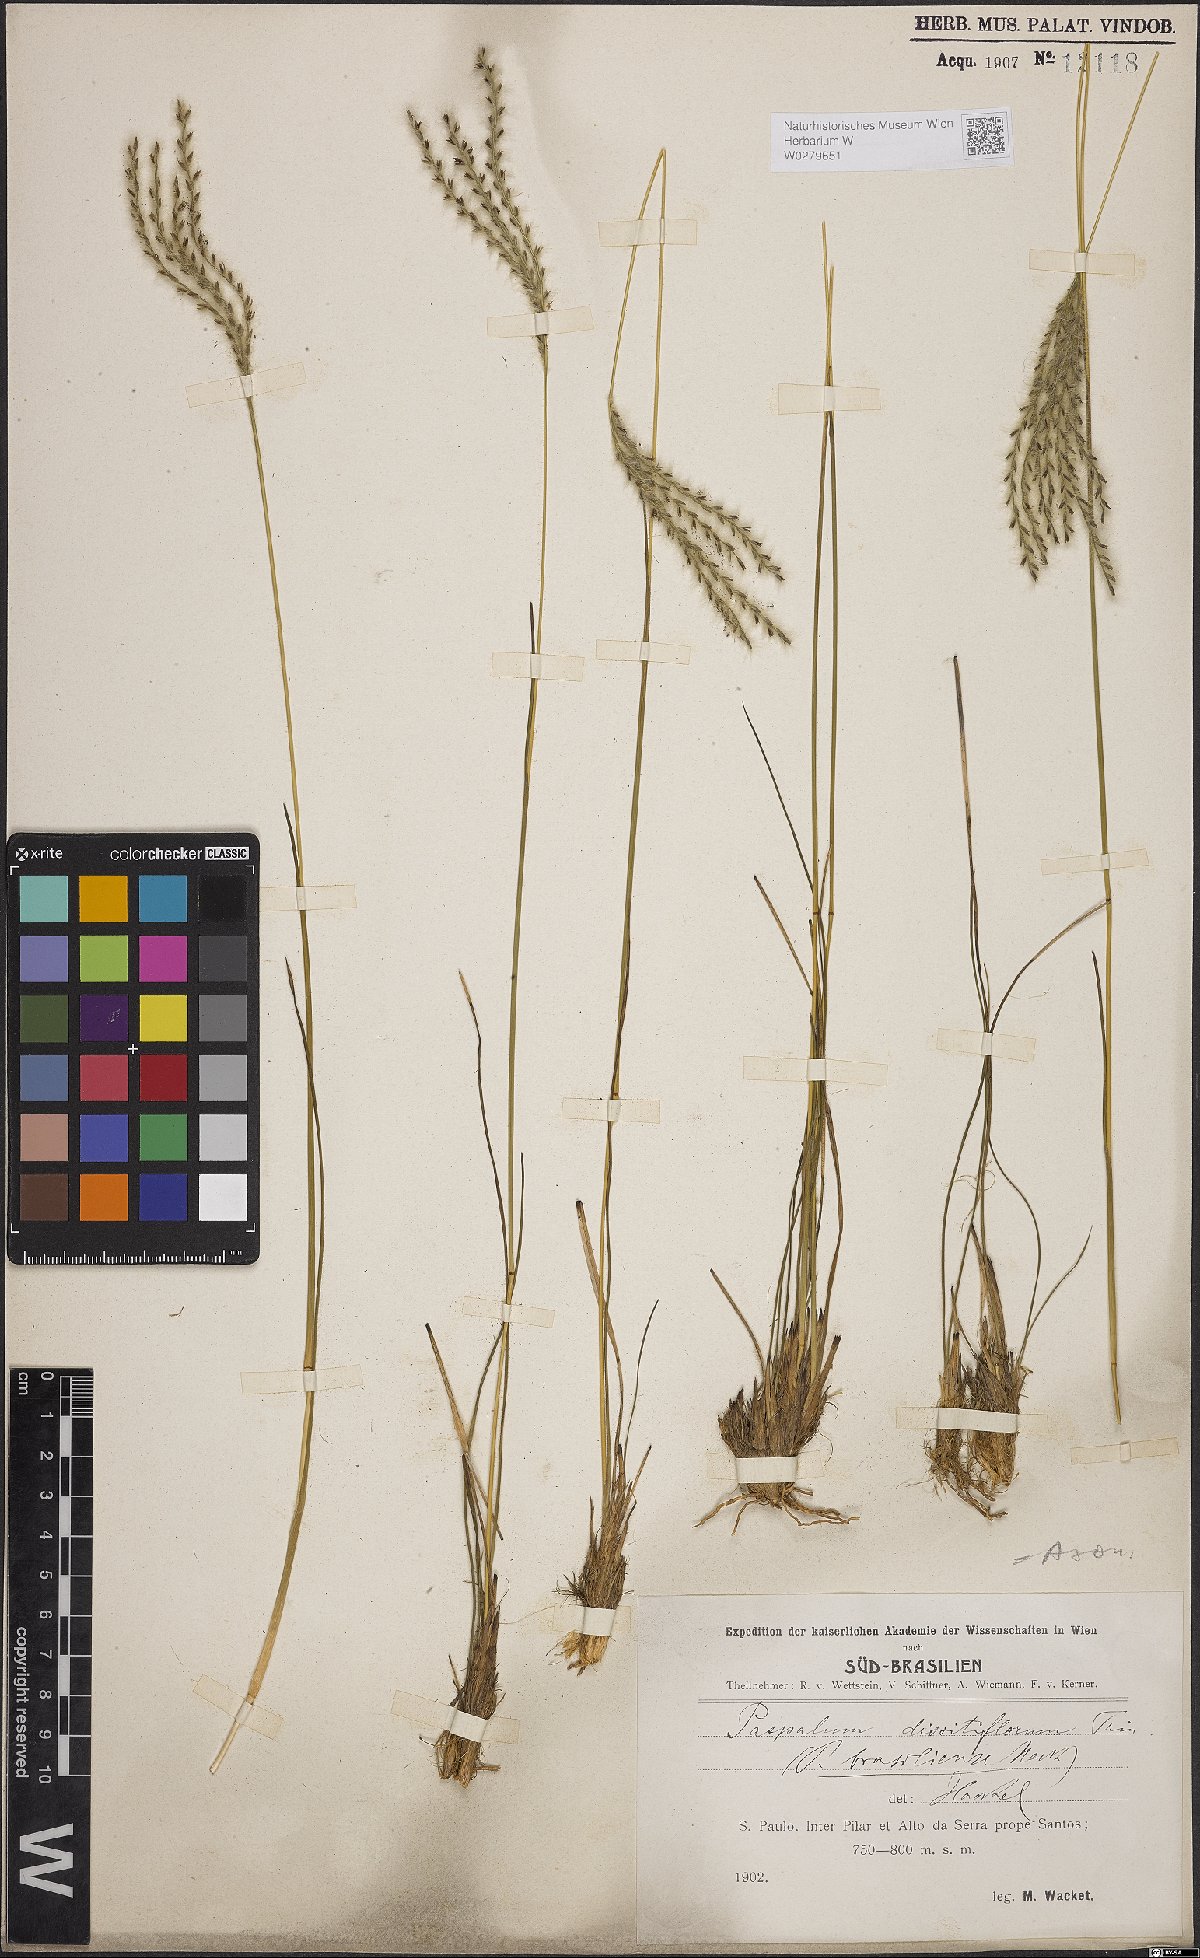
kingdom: Plantae
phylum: Tracheophyta
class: Liliopsida
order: Poales
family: Poaceae
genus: Axonopus
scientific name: Axonopus brasiliensis
